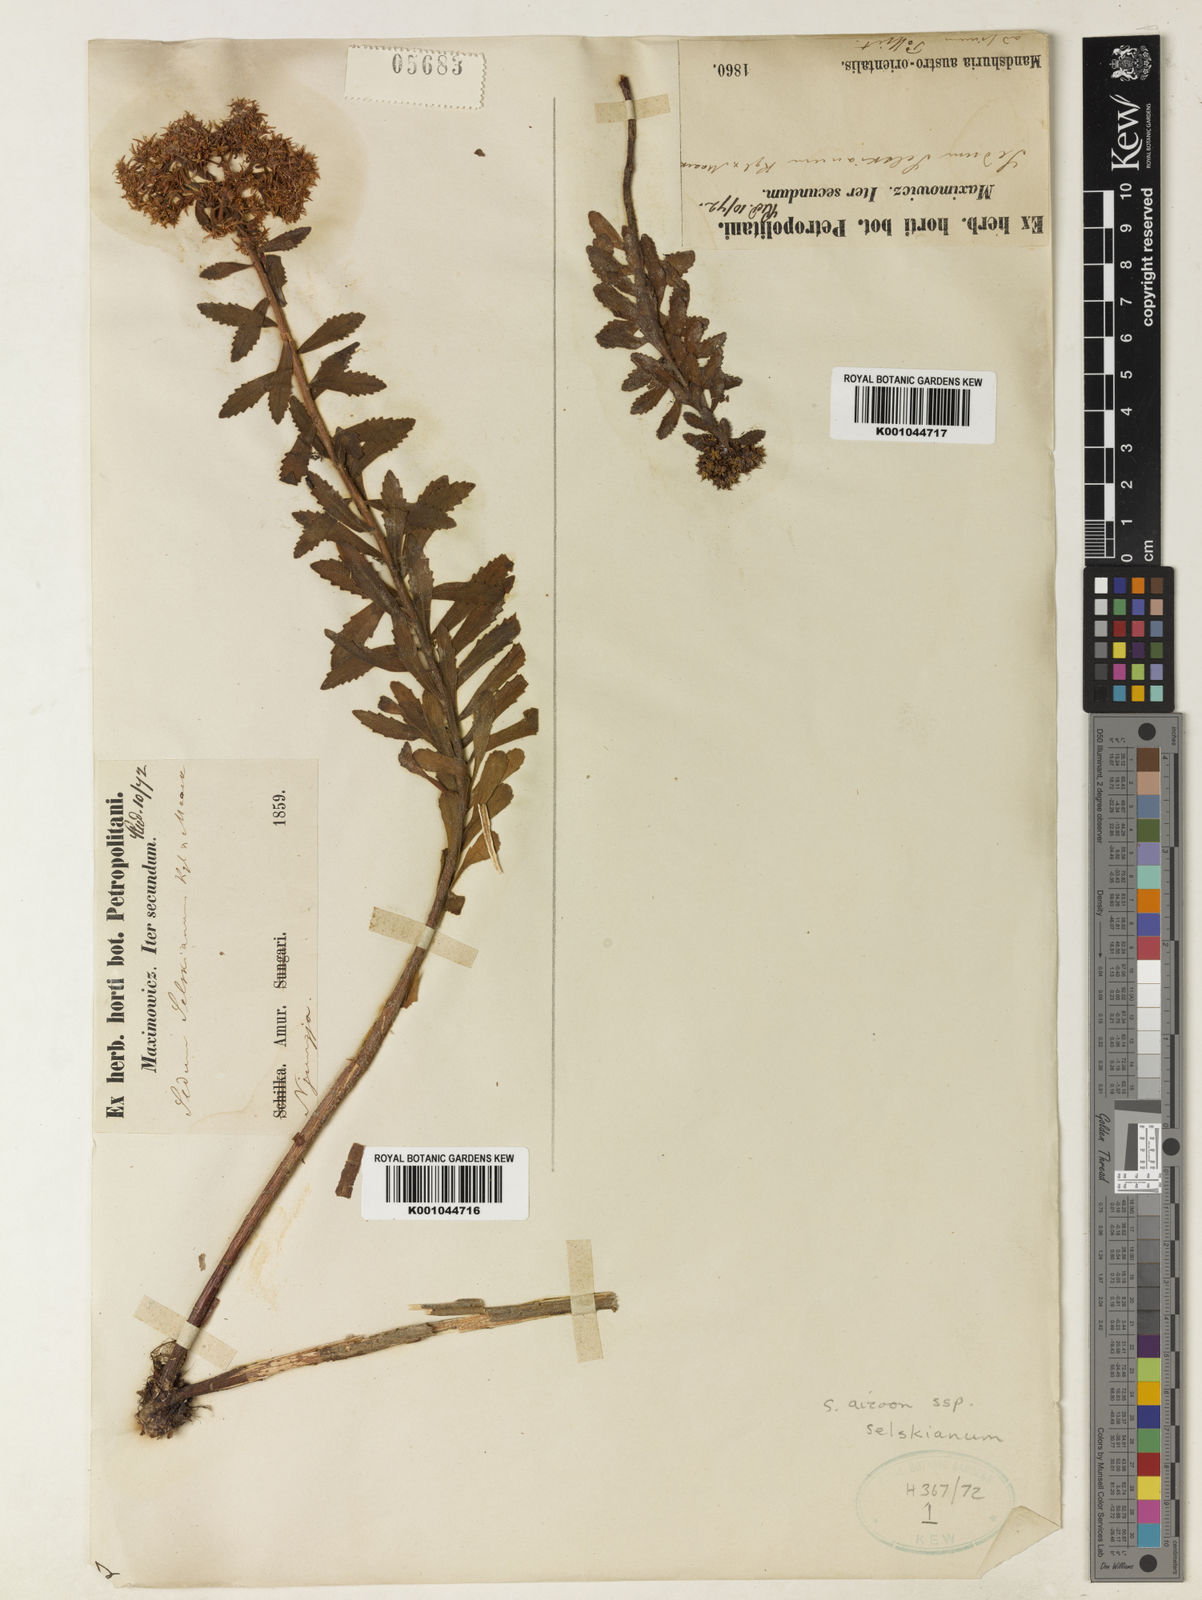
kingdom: Plantae
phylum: Tracheophyta
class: Magnoliopsida
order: Saxifragales
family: Crassulaceae
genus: Phedimus
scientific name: Phedimus aizoon
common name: Orpin aizoon
